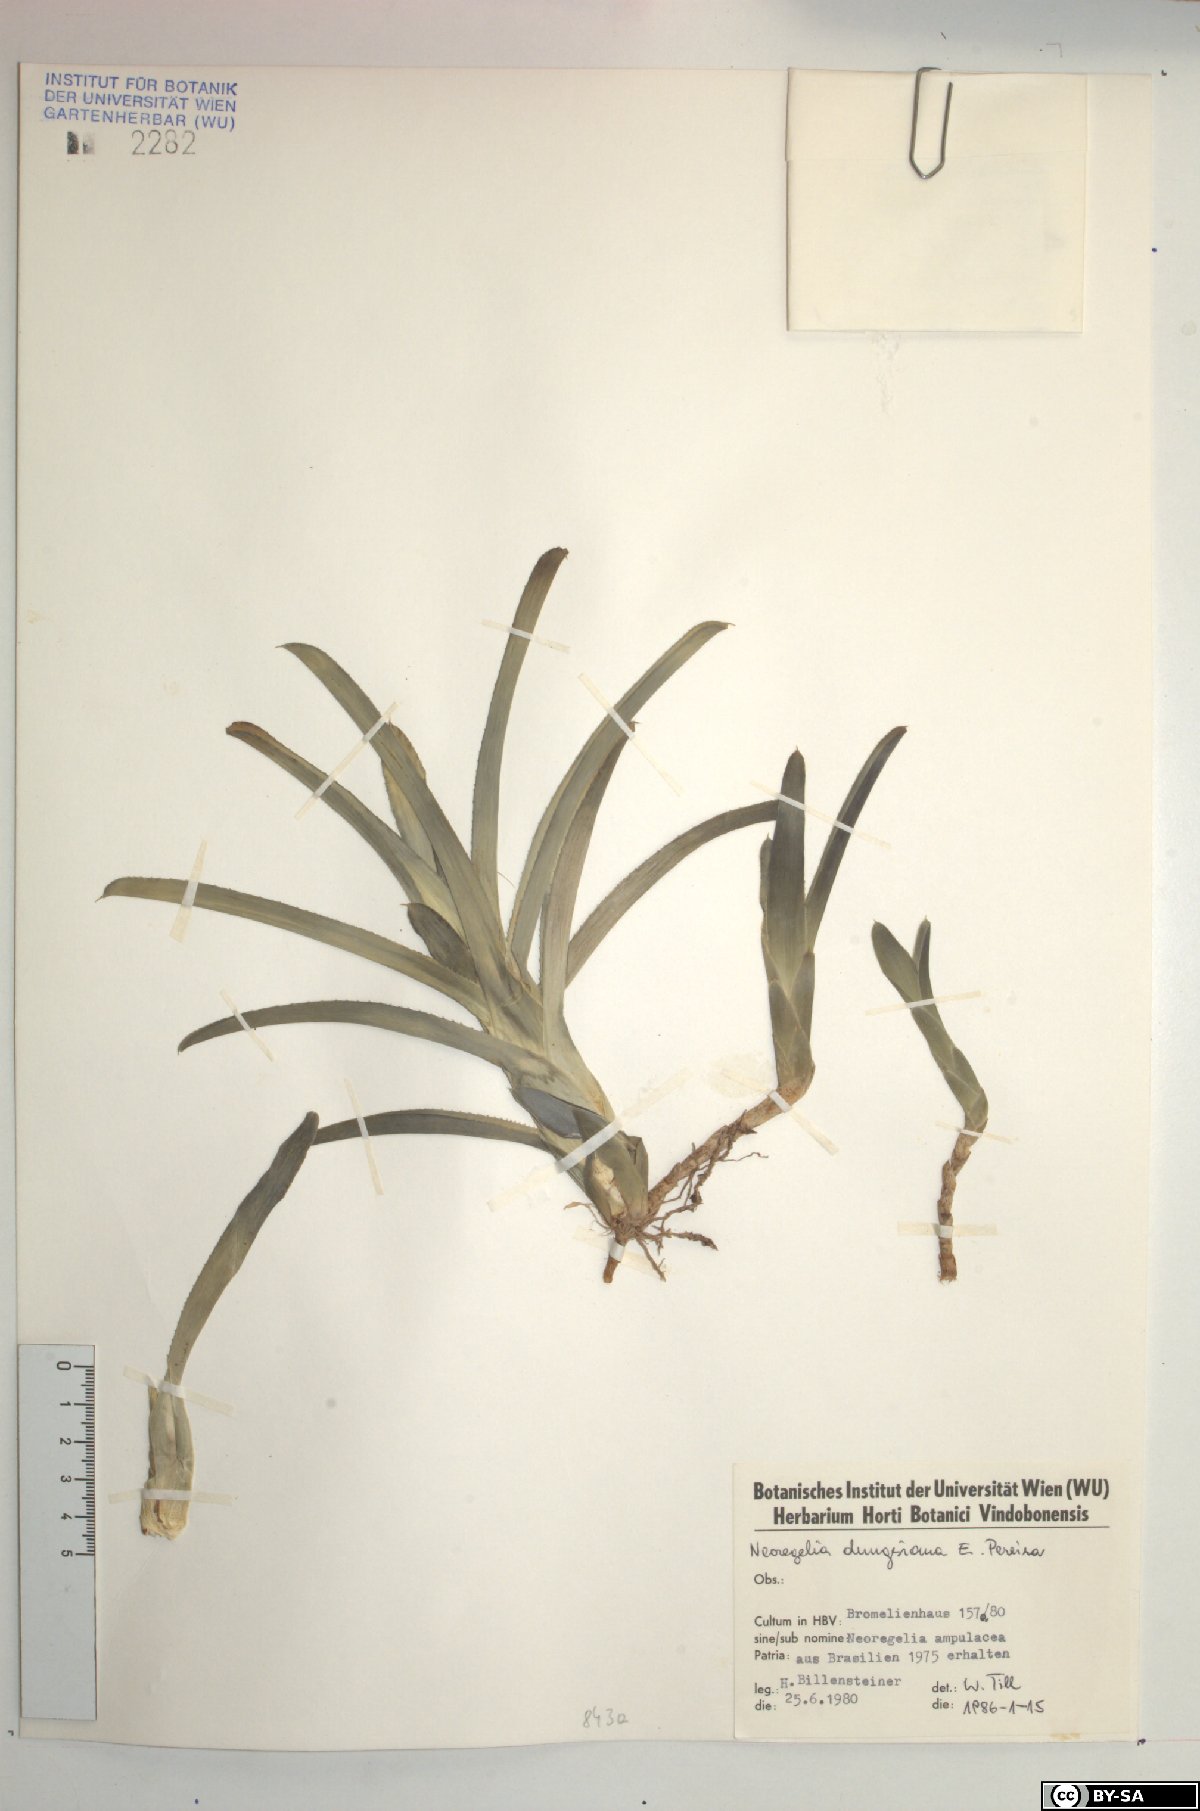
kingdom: Plantae
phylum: Tracheophyta
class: Liliopsida
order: Poales
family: Bromeliaceae
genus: Neoregelia
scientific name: Neoregelia dungsiana
